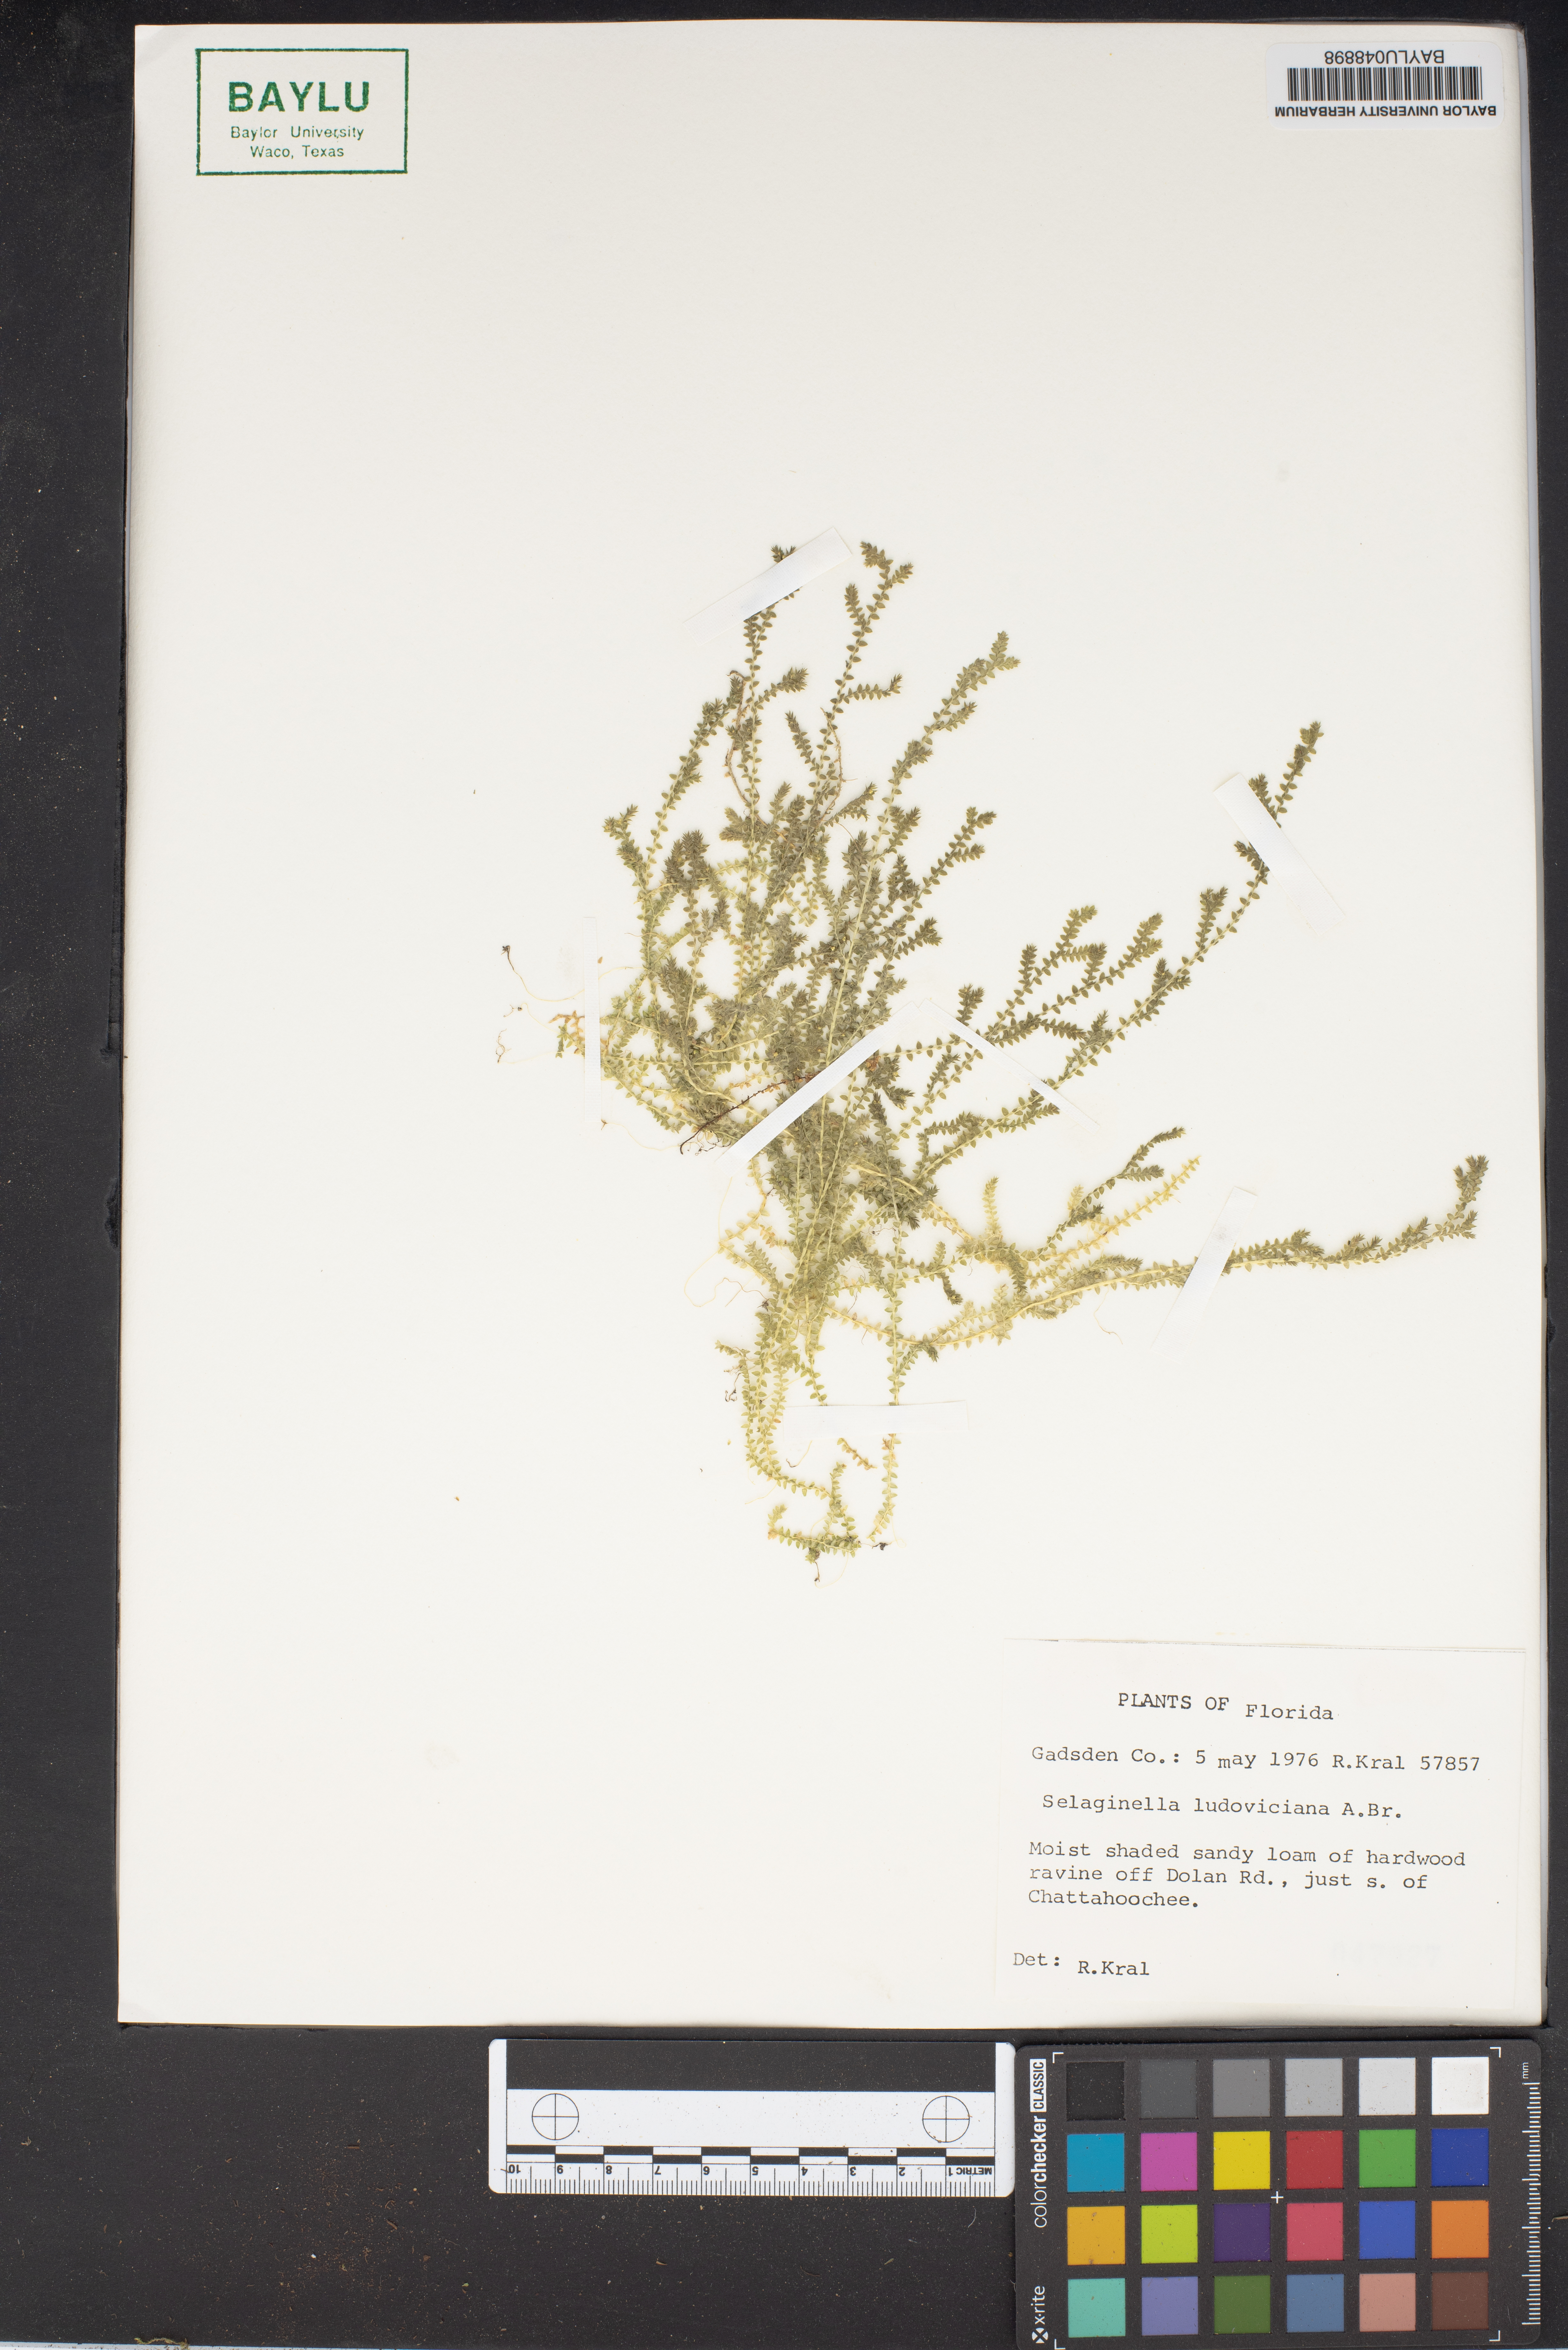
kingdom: Plantae
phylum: Tracheophyta
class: Lycopodiopsida
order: Selaginellales
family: Selaginellaceae
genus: Selaginella
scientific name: Selaginella ludoviciana
